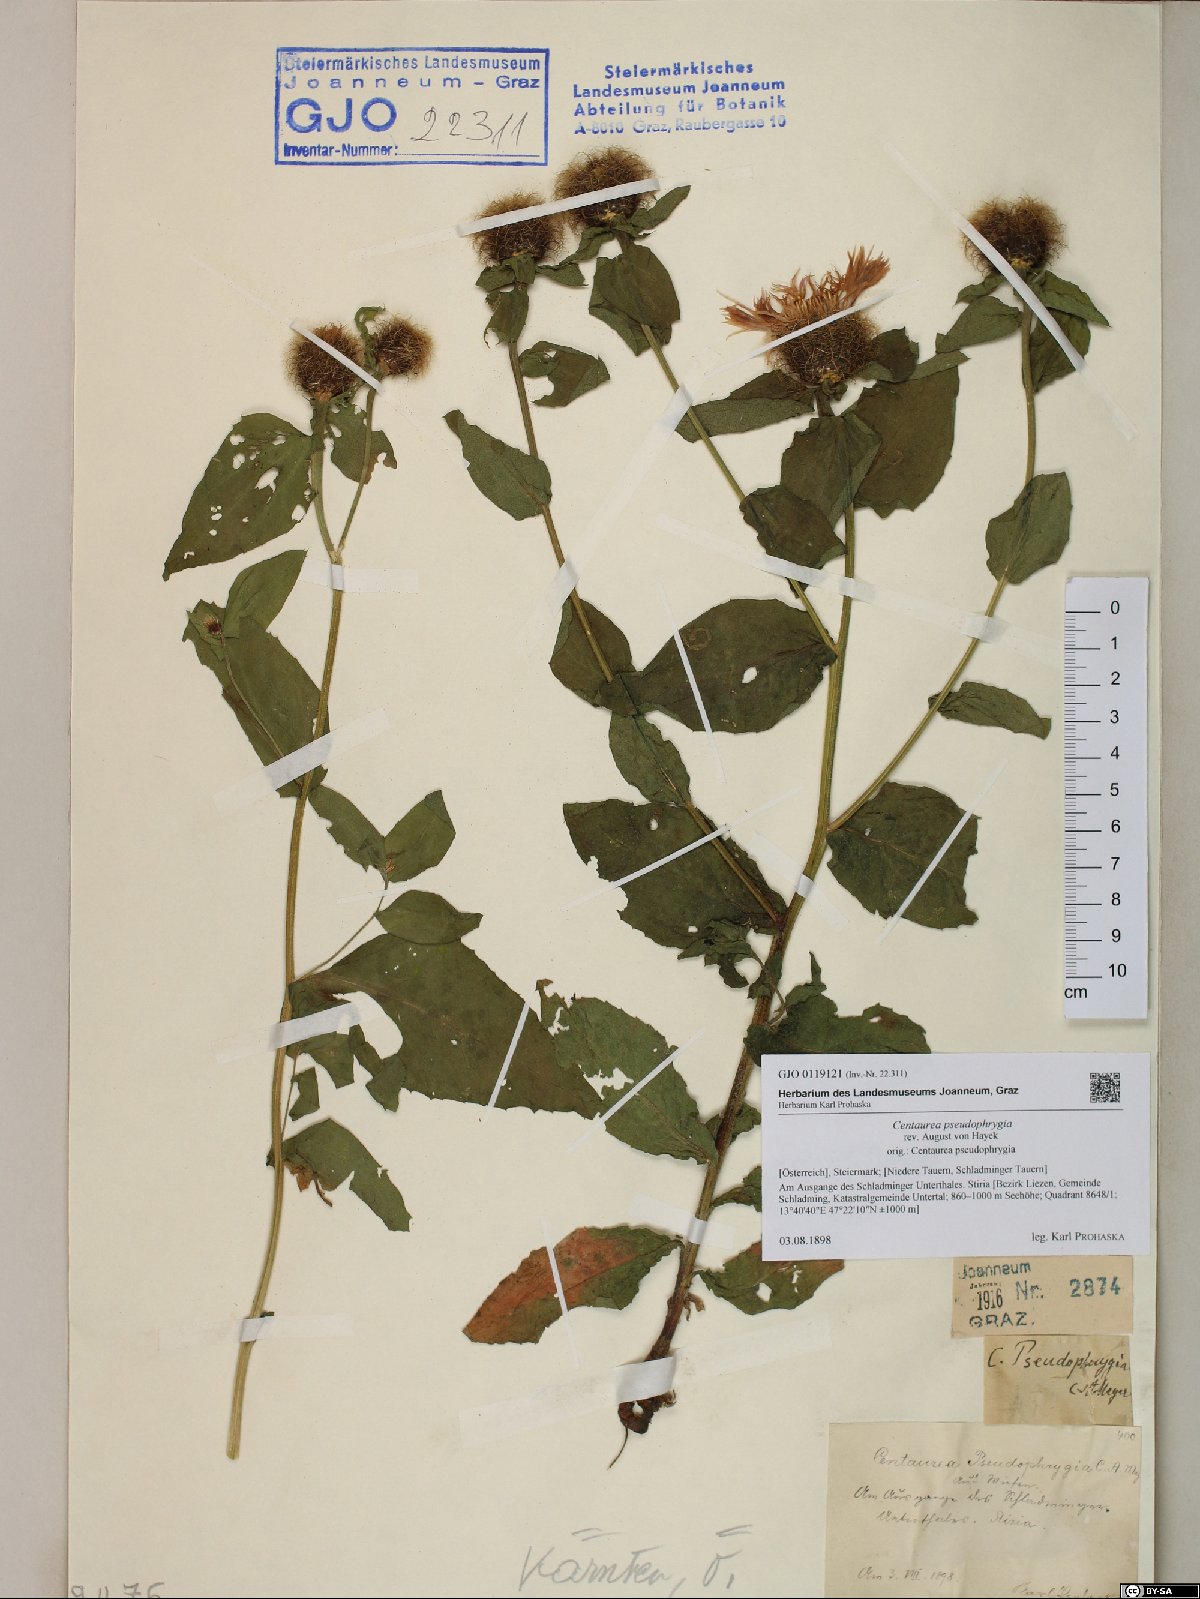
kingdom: Plantae
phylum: Tracheophyta
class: Magnoliopsida
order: Asterales
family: Asteraceae
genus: Centaurea
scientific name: Centaurea pseudophrygia
